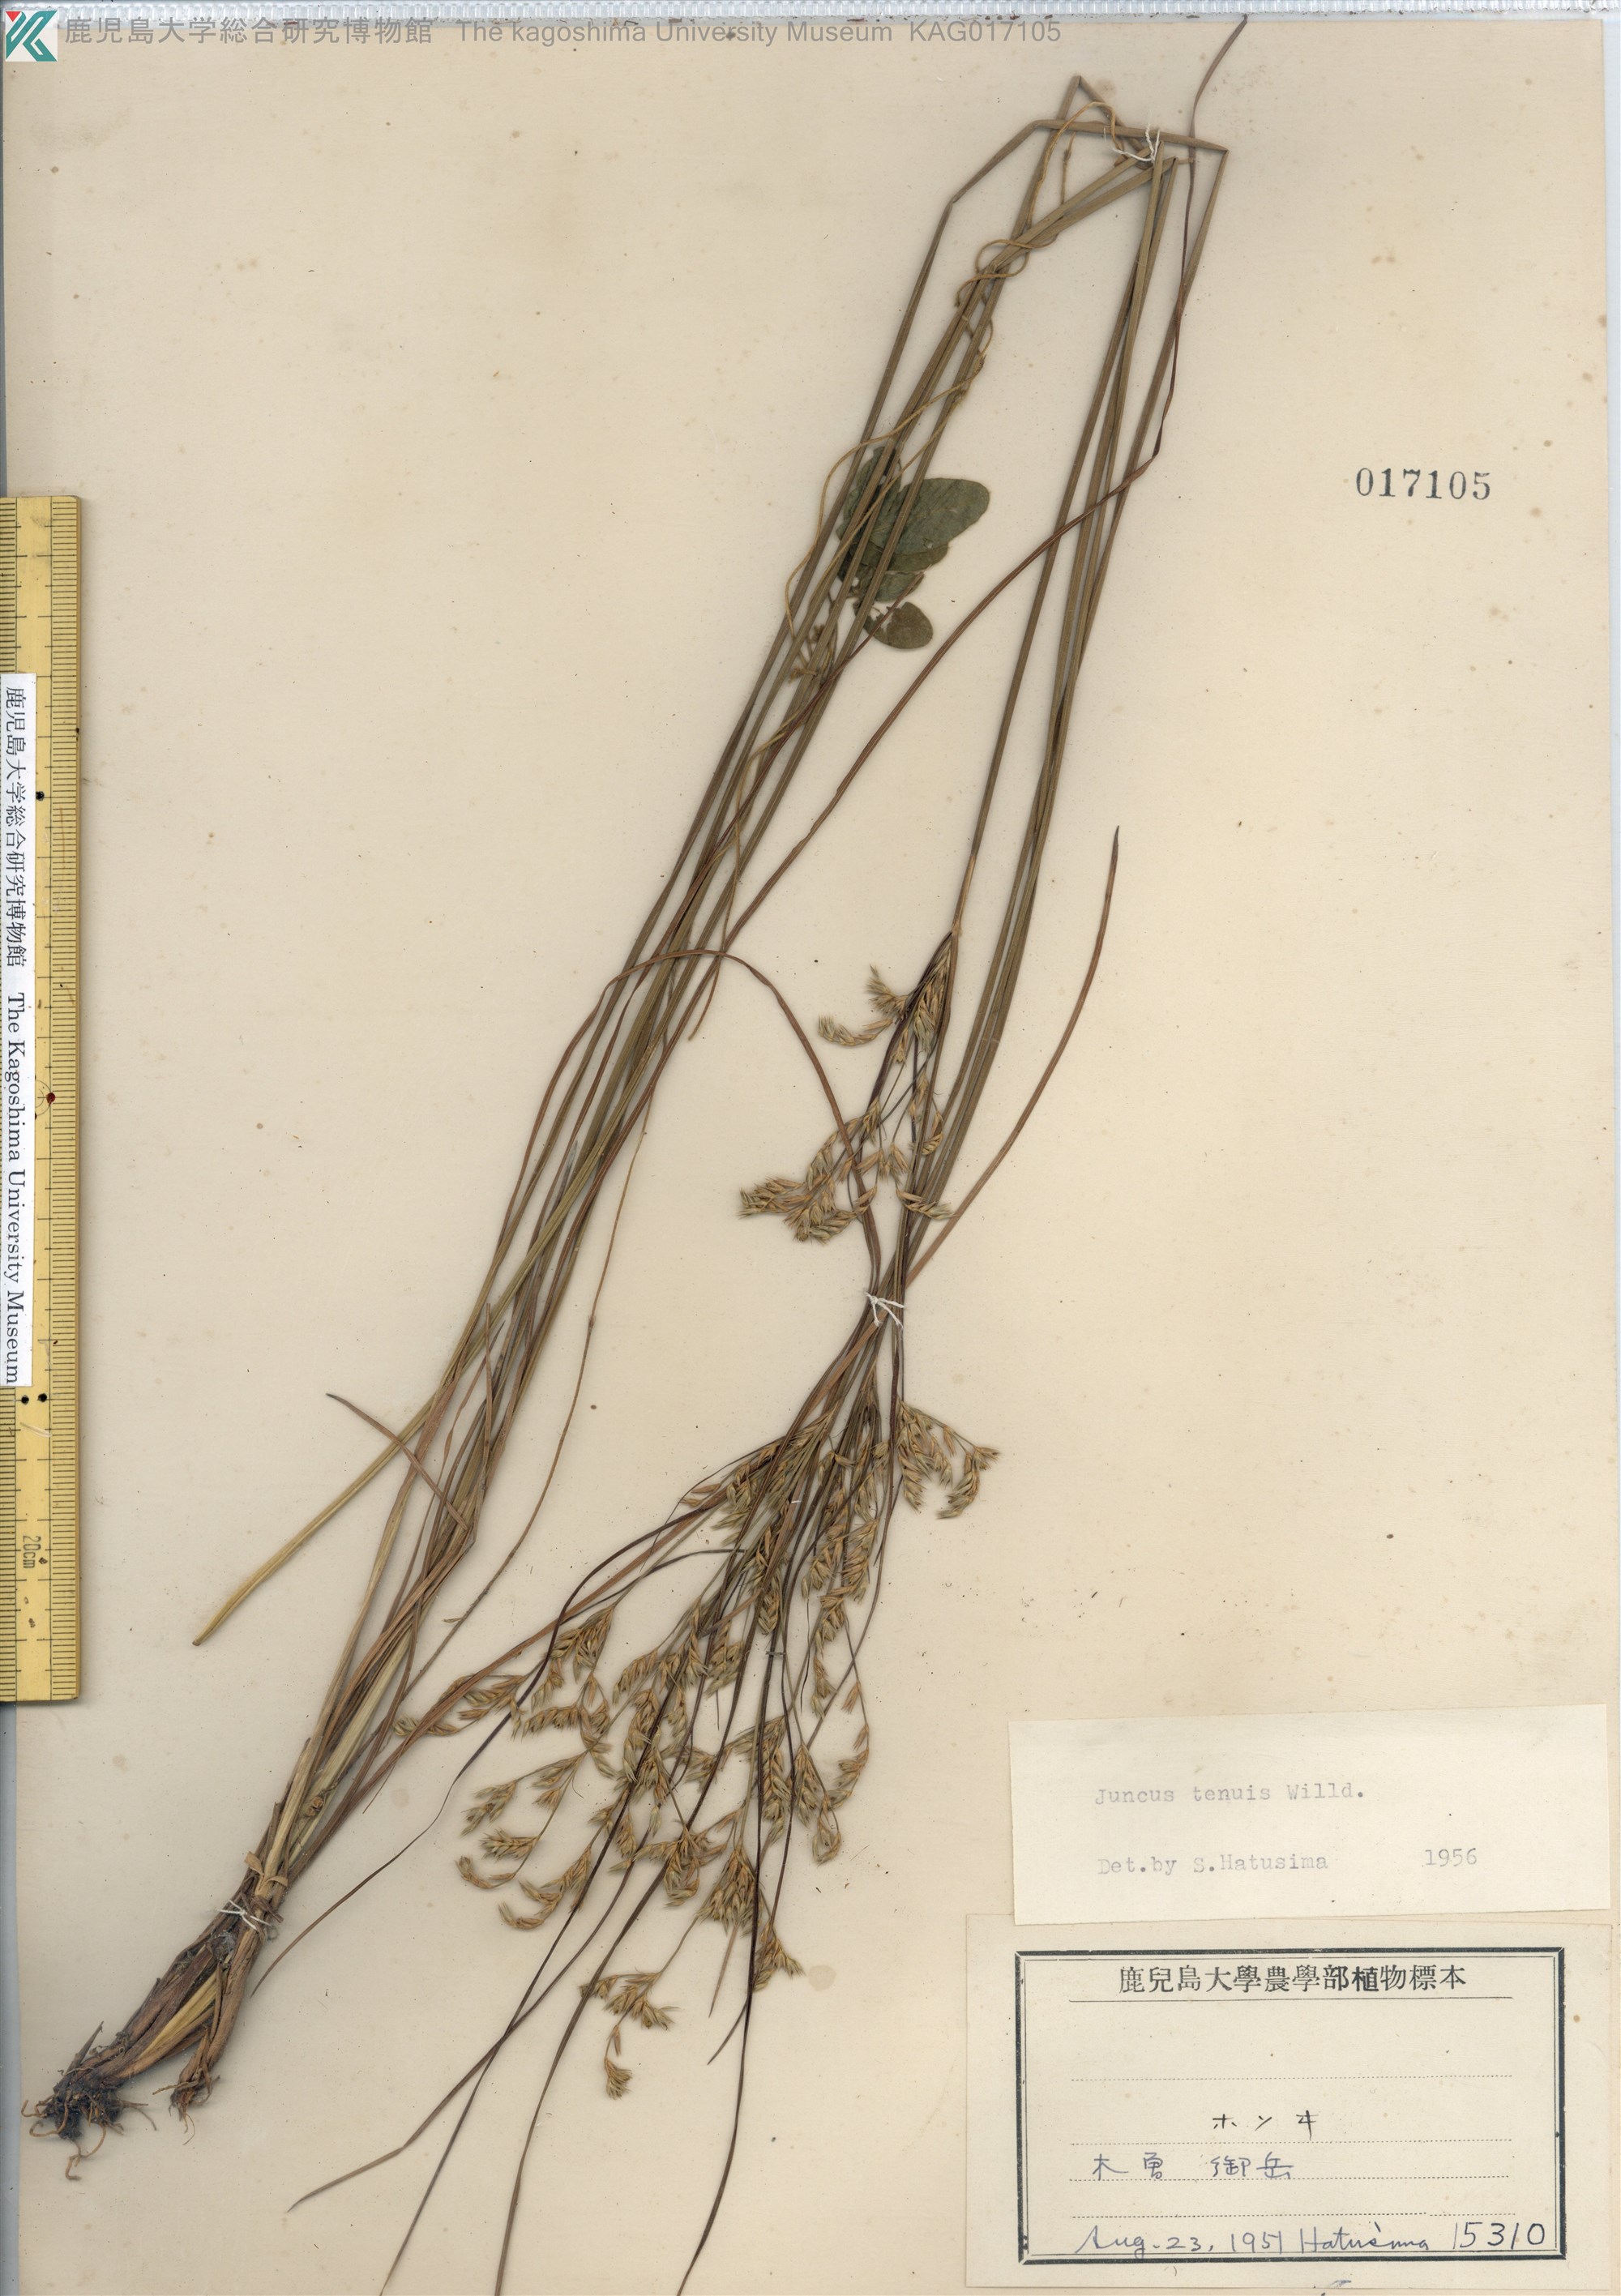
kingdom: Plantae
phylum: Tracheophyta
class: Liliopsida
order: Poales
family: Juncaceae
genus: Juncus
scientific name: Juncus tenuis
